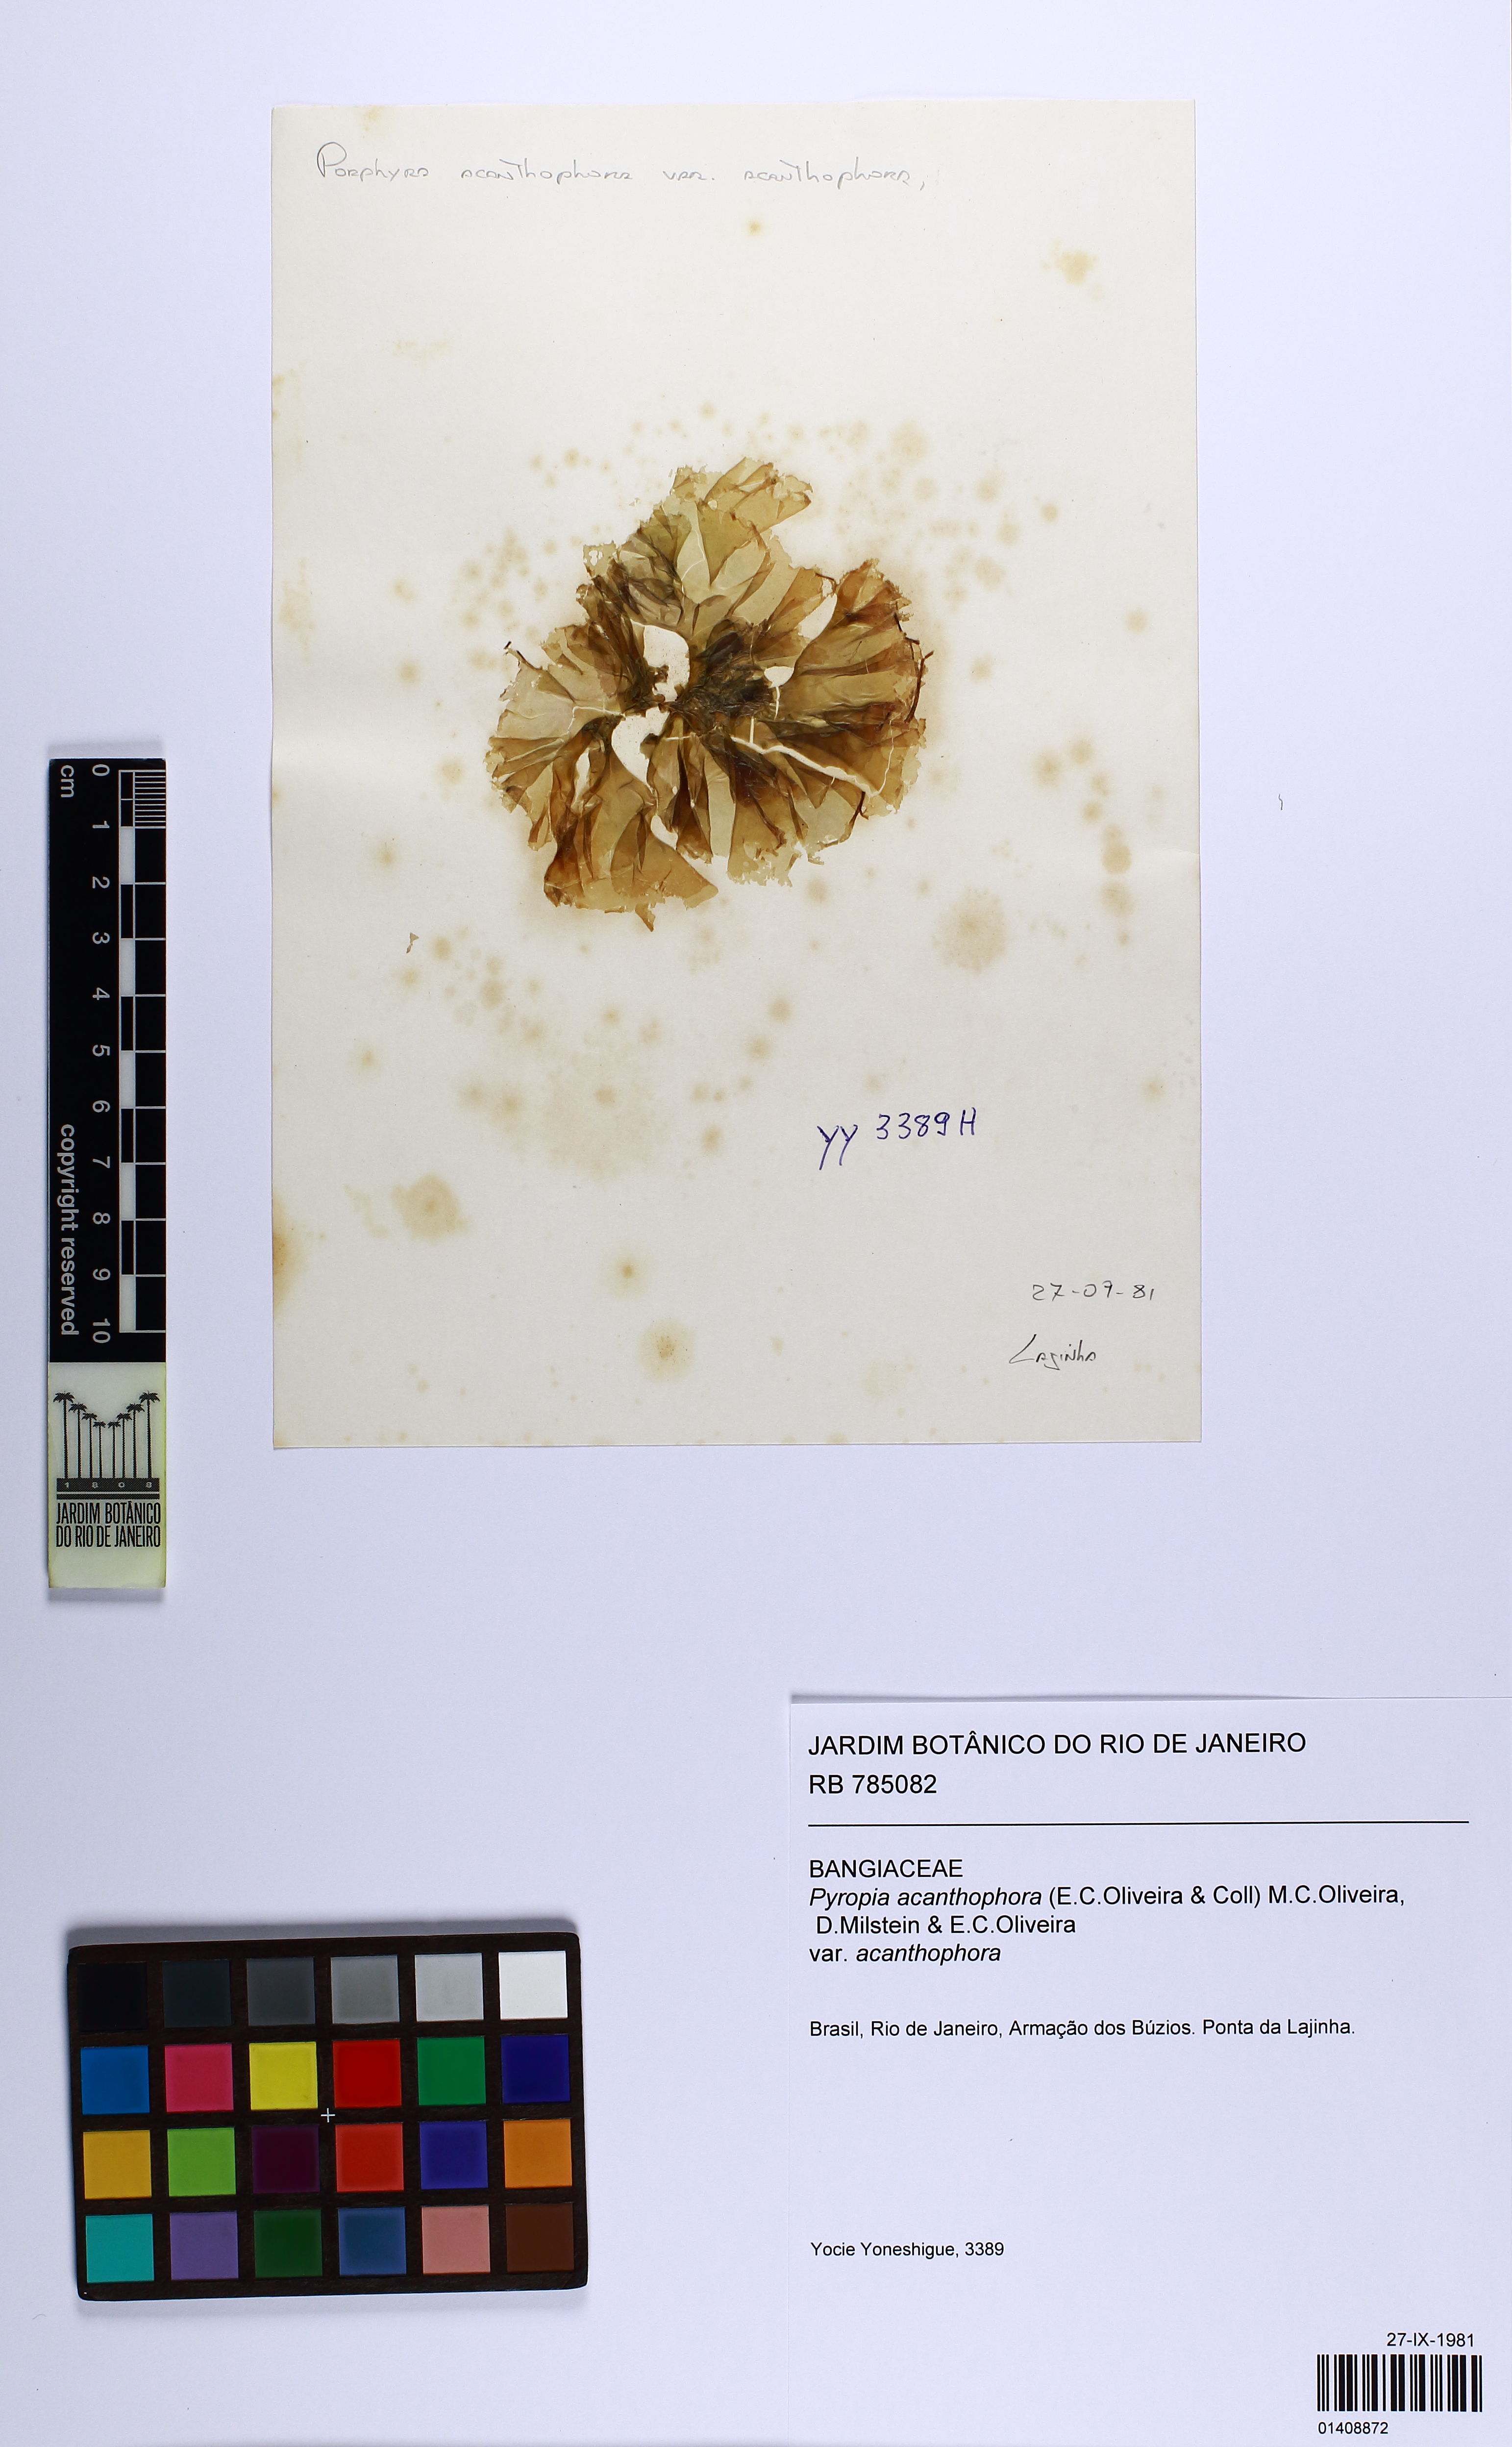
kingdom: Plantae
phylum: Rhodophyta
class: Bangiophyceae
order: Bangiales
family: Bangiaceae
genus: Pyropia
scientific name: Pyropia acanthophora
